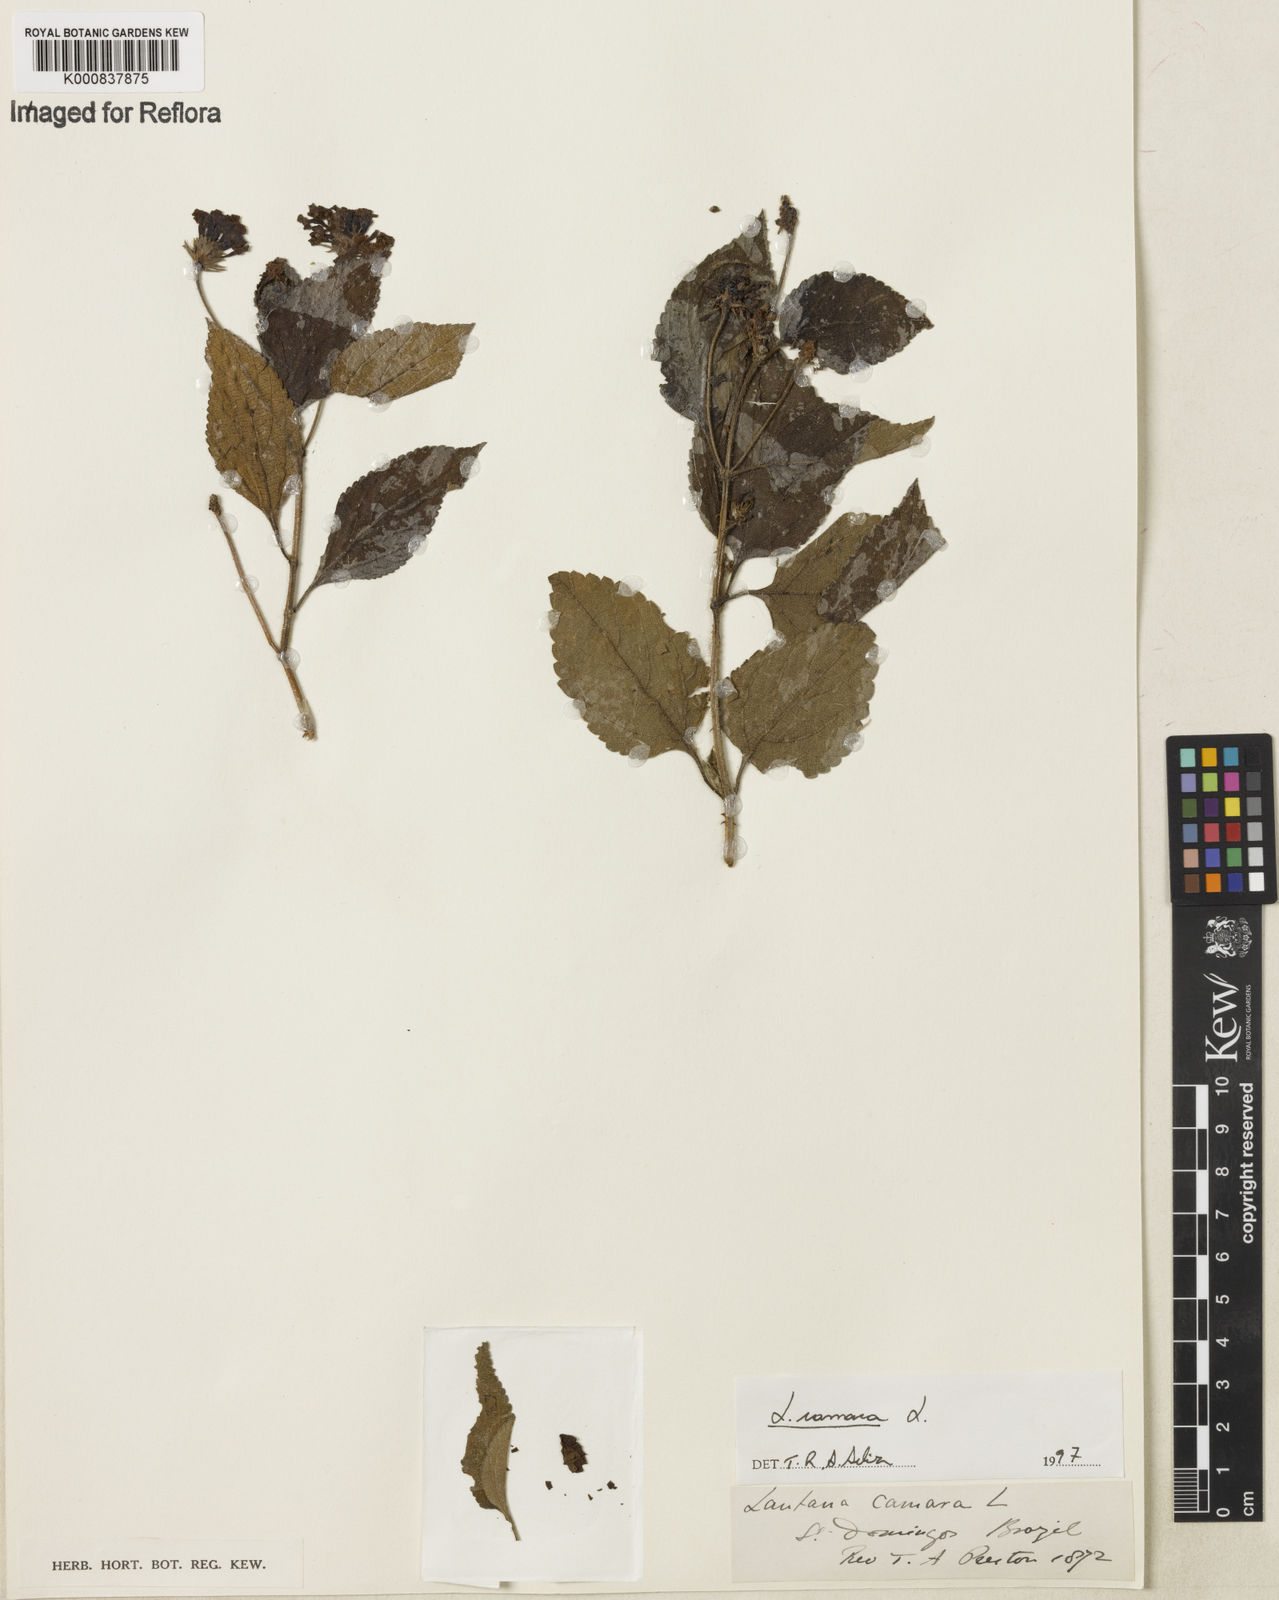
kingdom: Plantae
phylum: Tracheophyta
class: Magnoliopsida
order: Lamiales
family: Verbenaceae
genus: Lantana
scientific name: Lantana camara
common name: Lantana
